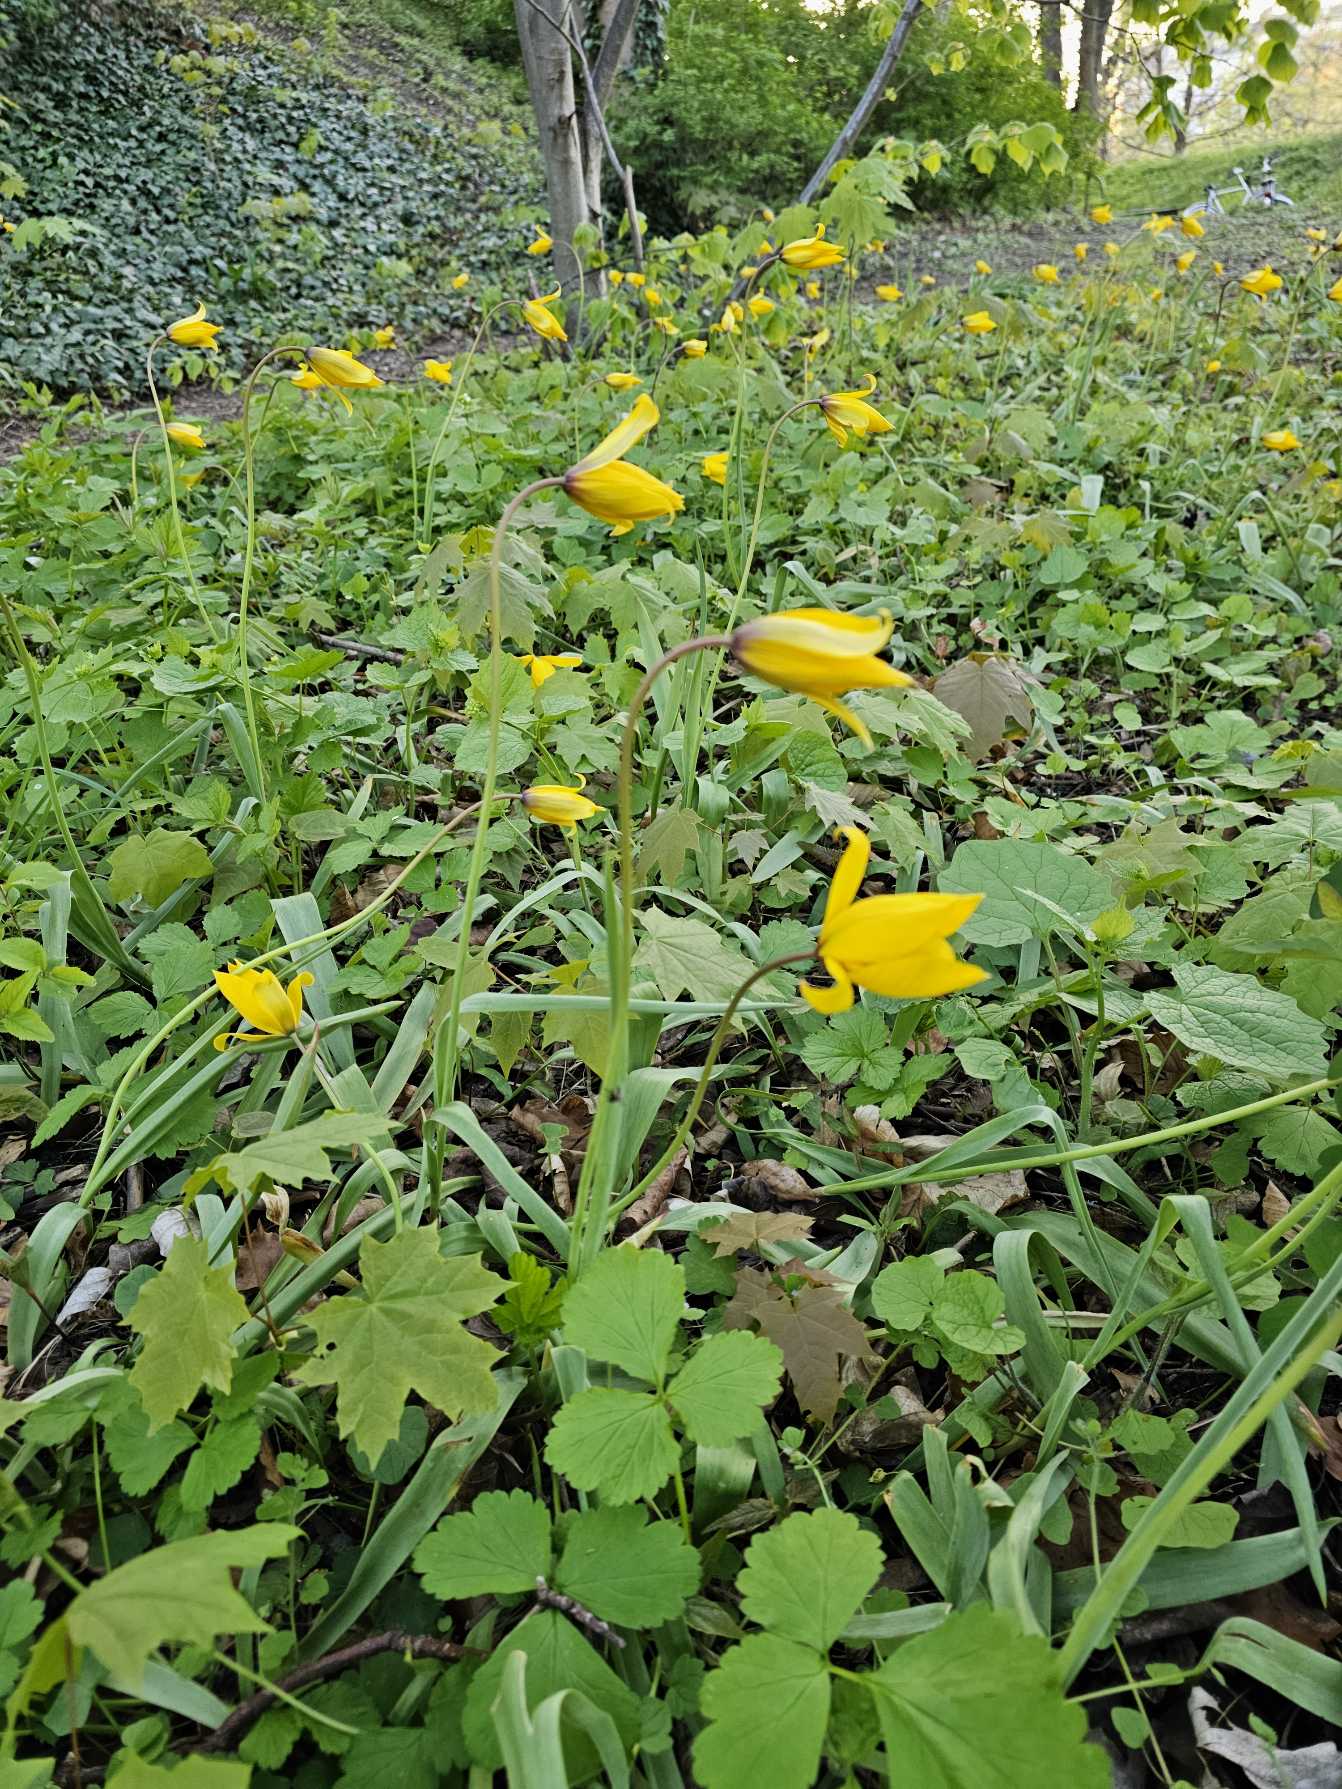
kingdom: Plantae
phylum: Tracheophyta
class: Liliopsida
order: Liliales
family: Liliaceae
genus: Tulipa
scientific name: Tulipa sylvestris
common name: Vild tulipan
